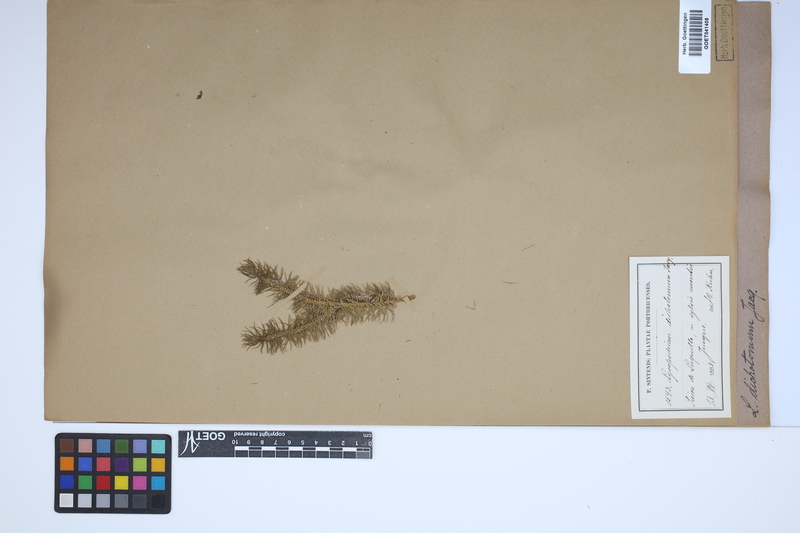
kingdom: Plantae
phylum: Tracheophyta
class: Lycopodiopsida
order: Lycopodiales
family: Lycopodiaceae
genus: Phlegmariurus
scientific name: Phlegmariurus dichotomus
